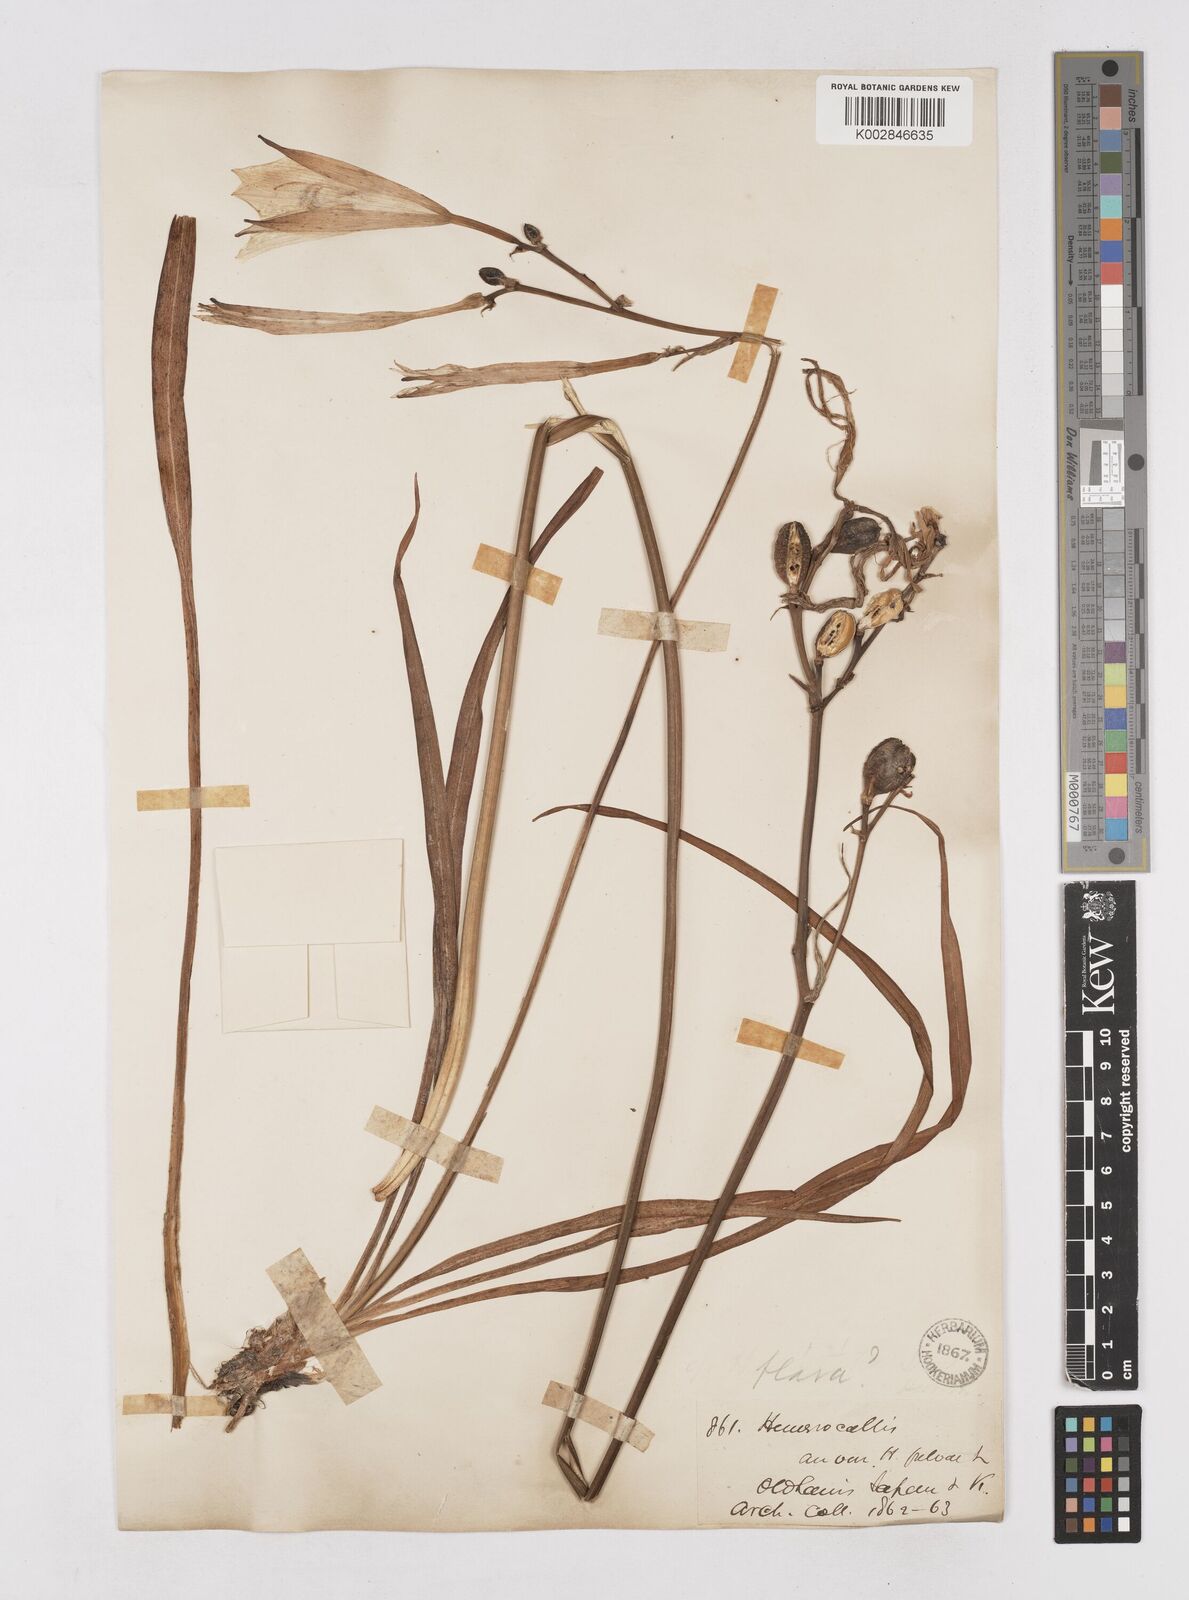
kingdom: Plantae
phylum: Tracheophyta
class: Liliopsida
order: Asparagales
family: Asphodelaceae
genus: Hemerocallis
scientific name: Hemerocallis
